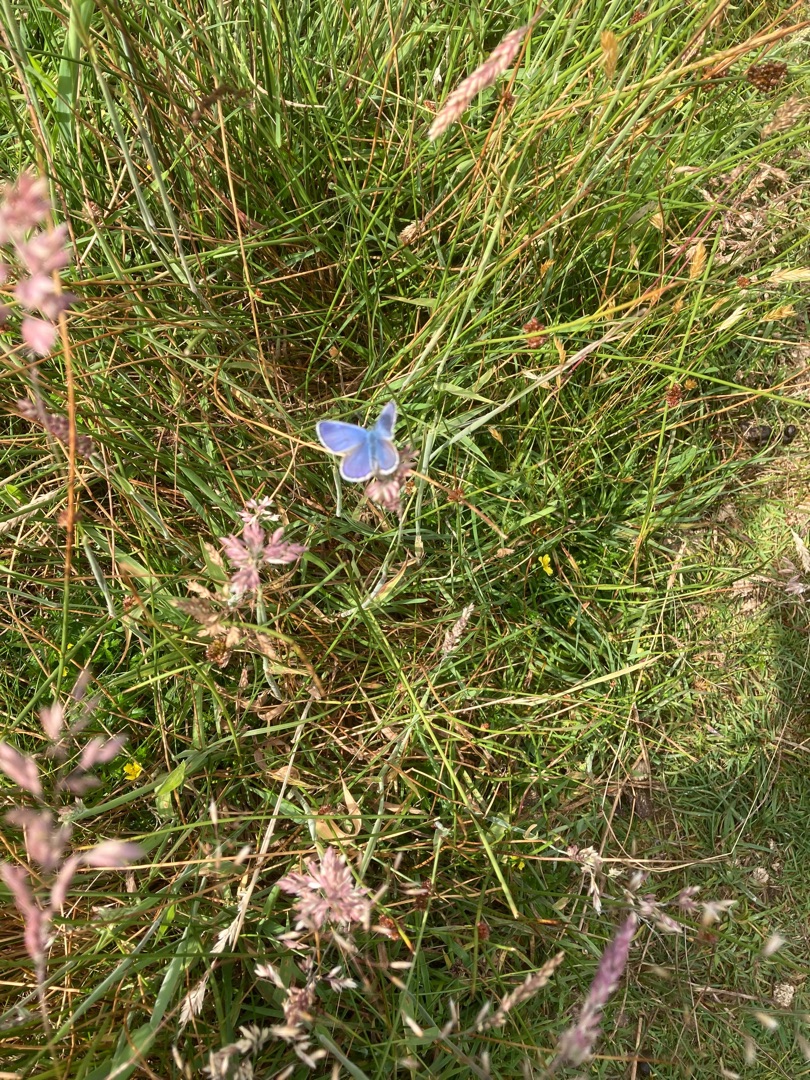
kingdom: Animalia
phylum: Arthropoda
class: Insecta
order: Lepidoptera
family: Lycaenidae
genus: Polyommatus
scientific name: Polyommatus icarus
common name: Almindelig blåfugl
